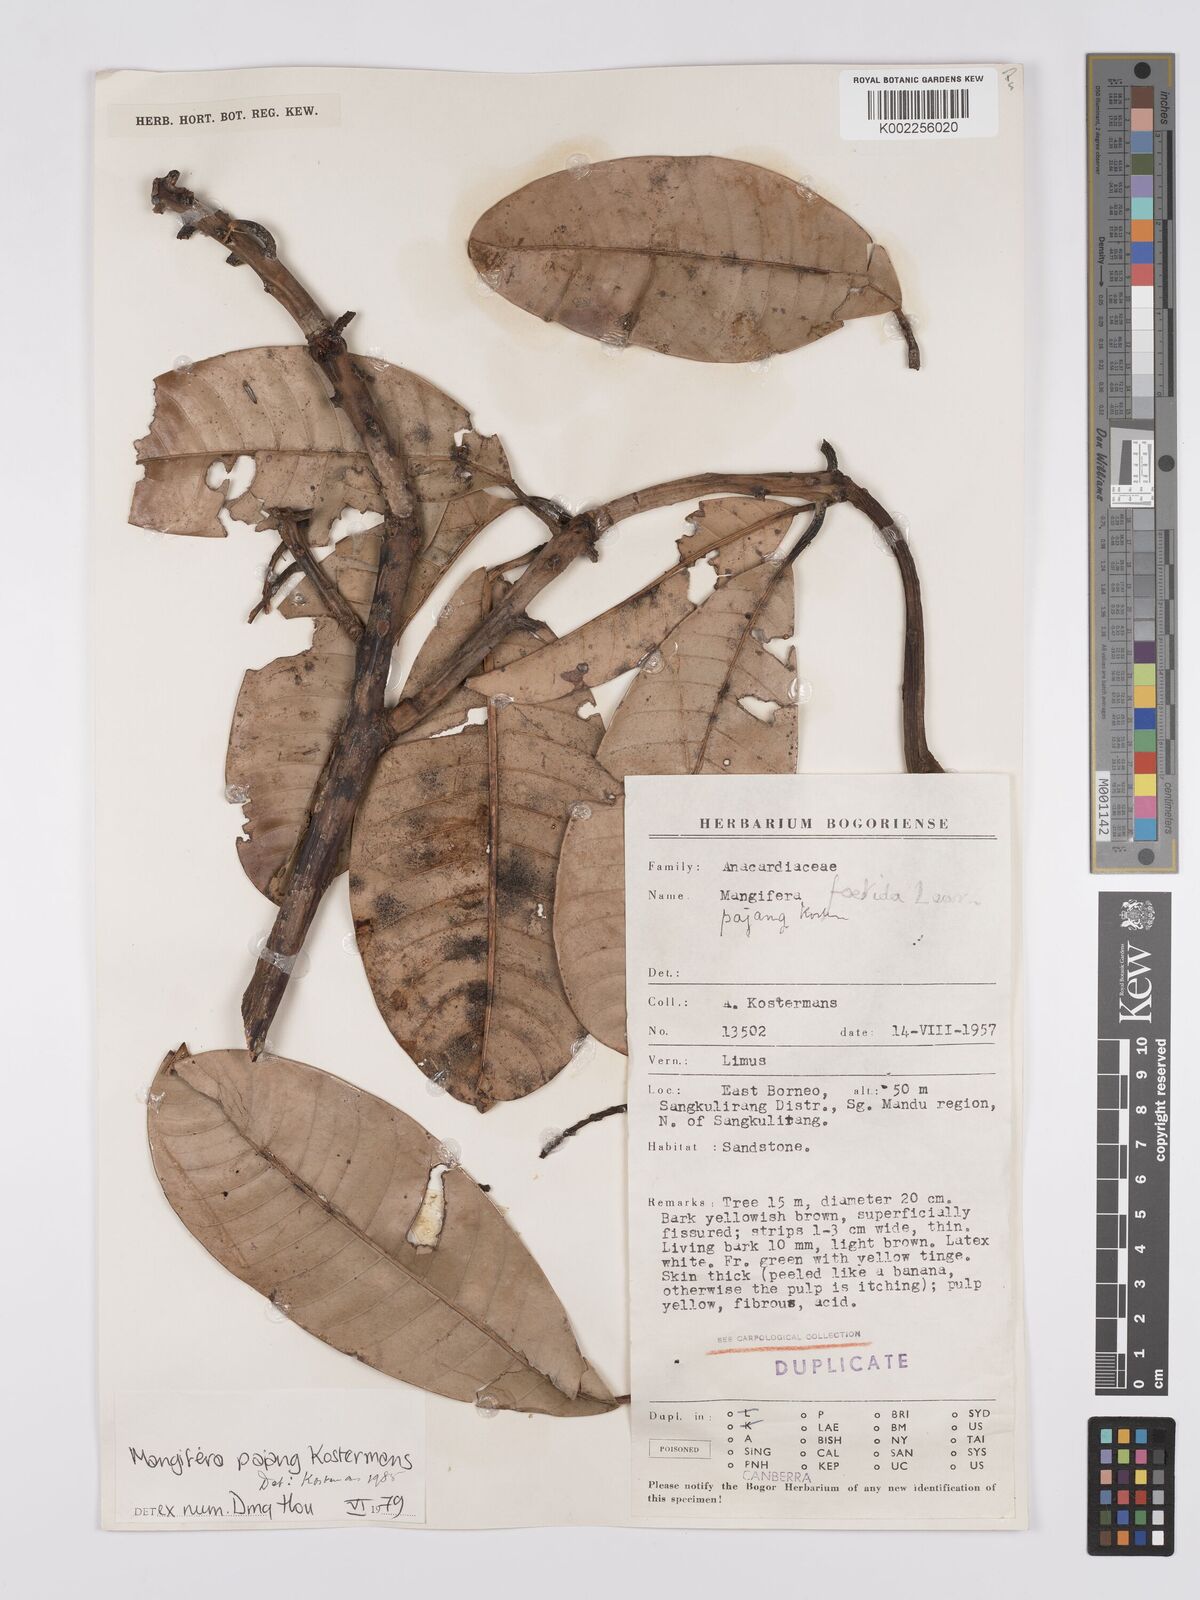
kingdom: Plantae
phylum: Tracheophyta
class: Magnoliopsida
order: Sapindales
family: Anacardiaceae
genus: Mangifera
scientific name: Mangifera pajang
